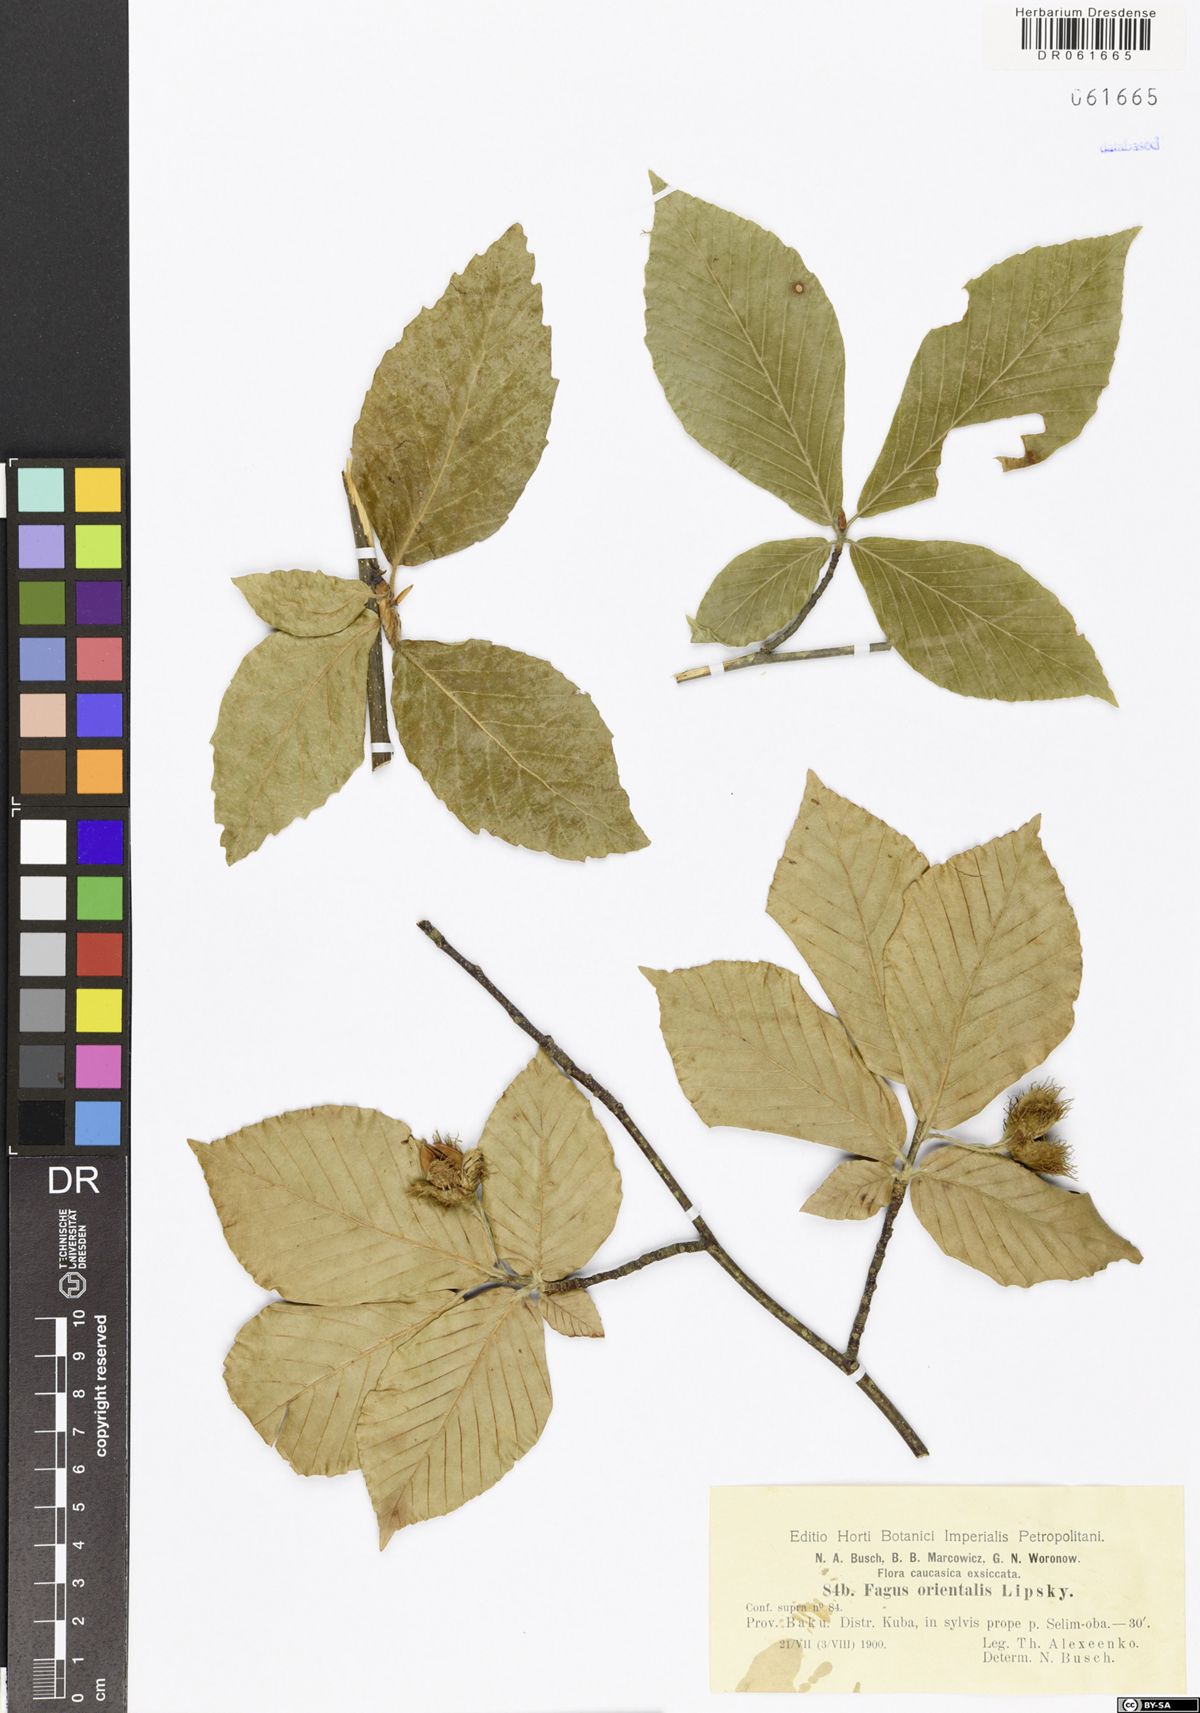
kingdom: Plantae
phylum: Tracheophyta
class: Magnoliopsida
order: Fagales
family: Fagaceae
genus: Fagus
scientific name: Fagus orientalis
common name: Oriental beech
